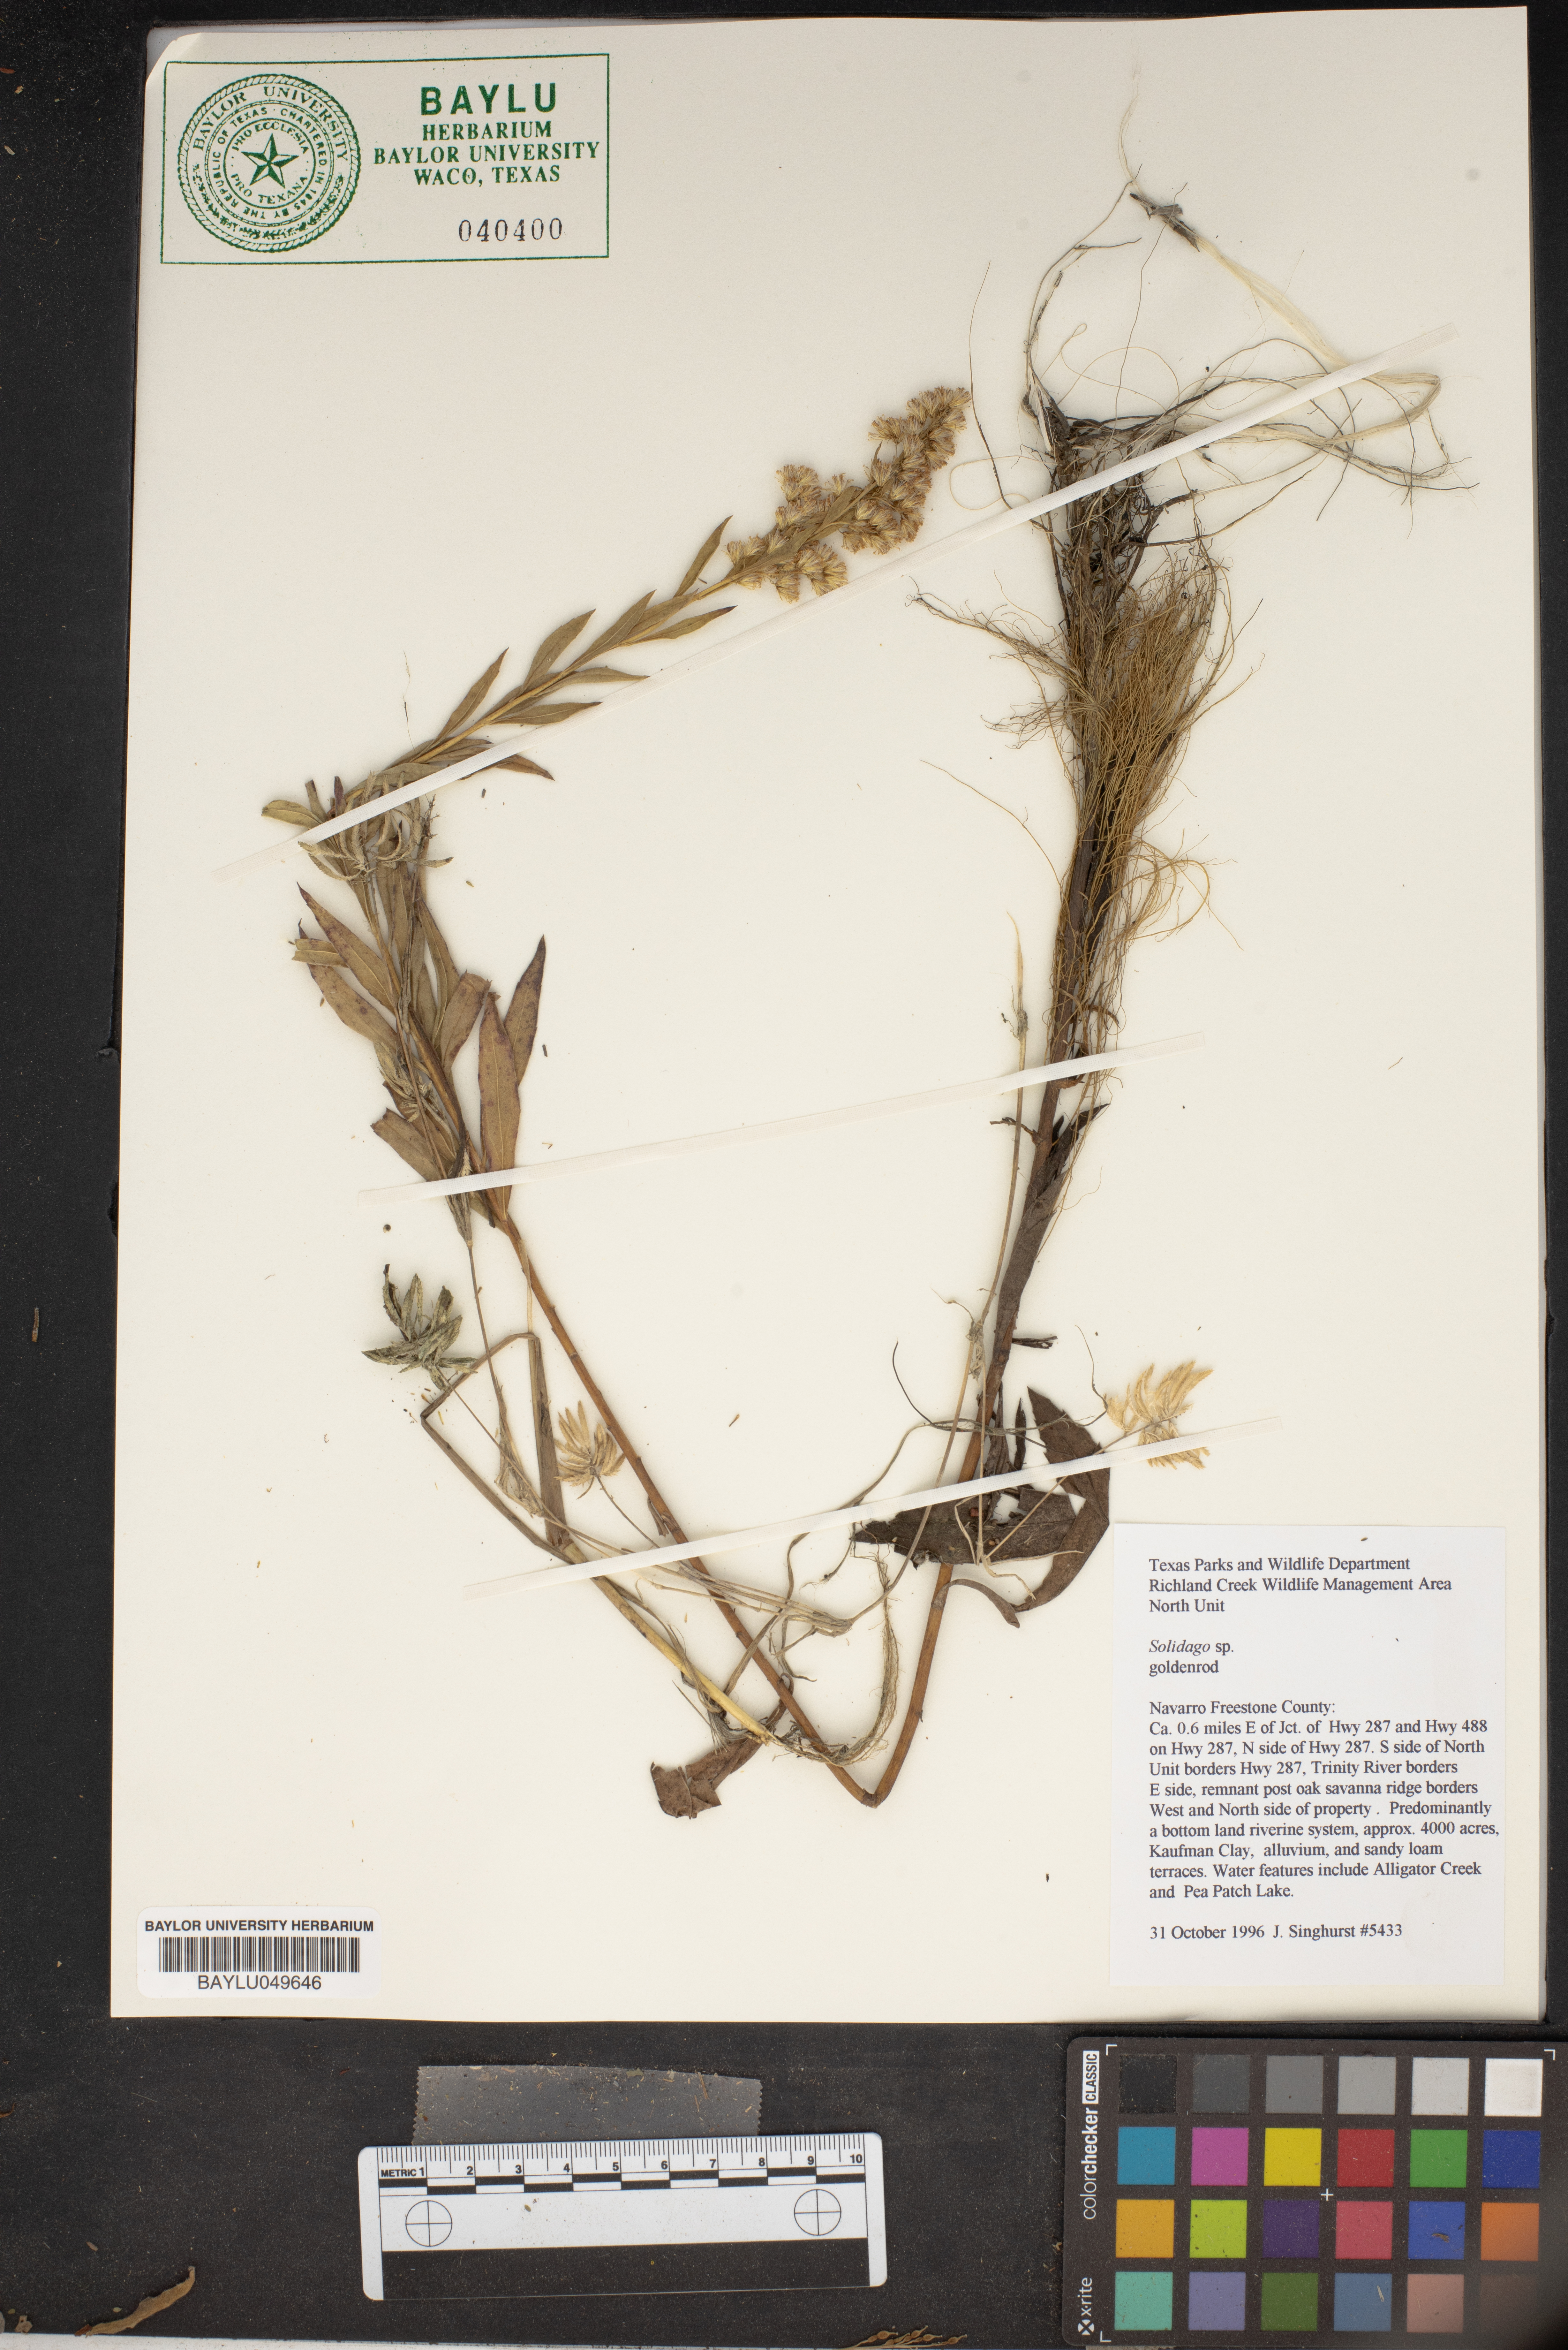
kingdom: Plantae
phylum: Tracheophyta
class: Magnoliopsida
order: Asterales
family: Asteraceae
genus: Solidago
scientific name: Solidago
